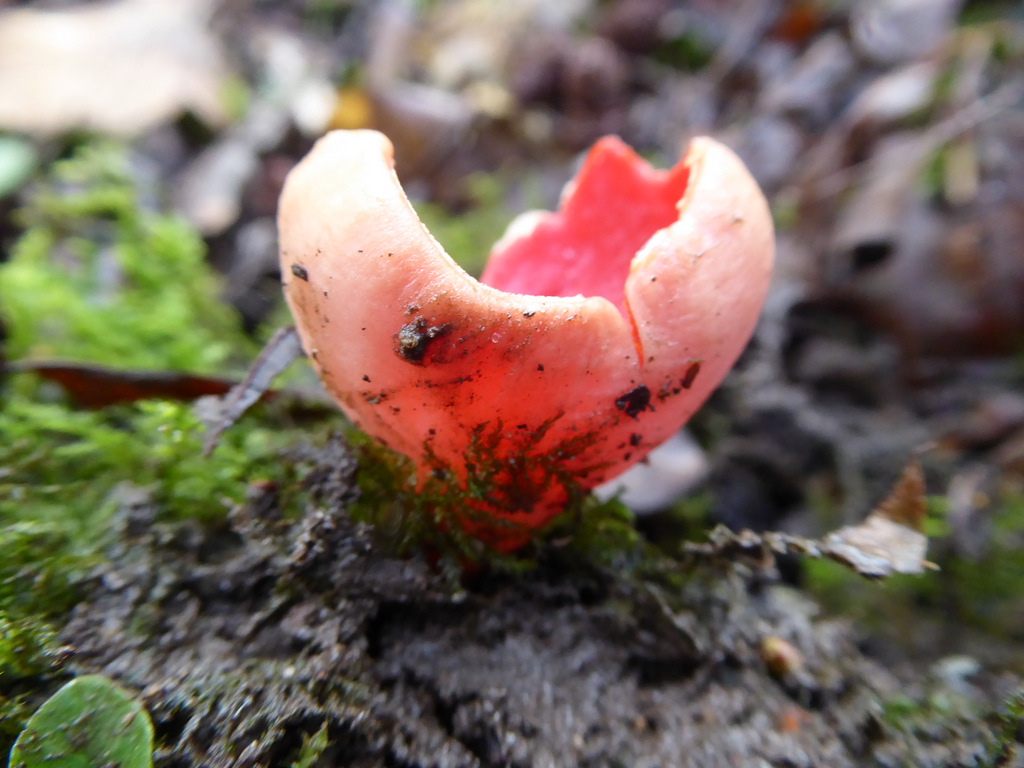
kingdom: Fungi
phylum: Ascomycota
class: Pezizomycetes
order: Pezizales
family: Sarcoscyphaceae
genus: Sarcoscypha
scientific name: Sarcoscypha austriaca
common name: krølhåret pragtbæger
